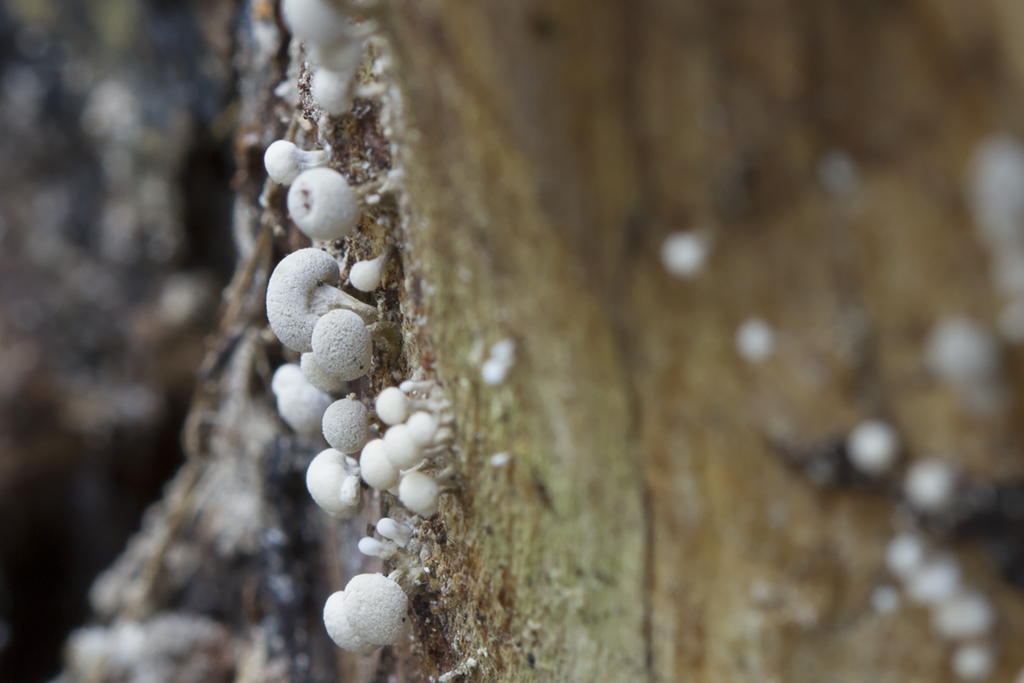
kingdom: Fungi
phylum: Basidiomycota
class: Atractiellomycetes
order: Atractiellales
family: Phleogenaceae
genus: Phleogena
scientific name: Phleogena faginea
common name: pudderkølle
